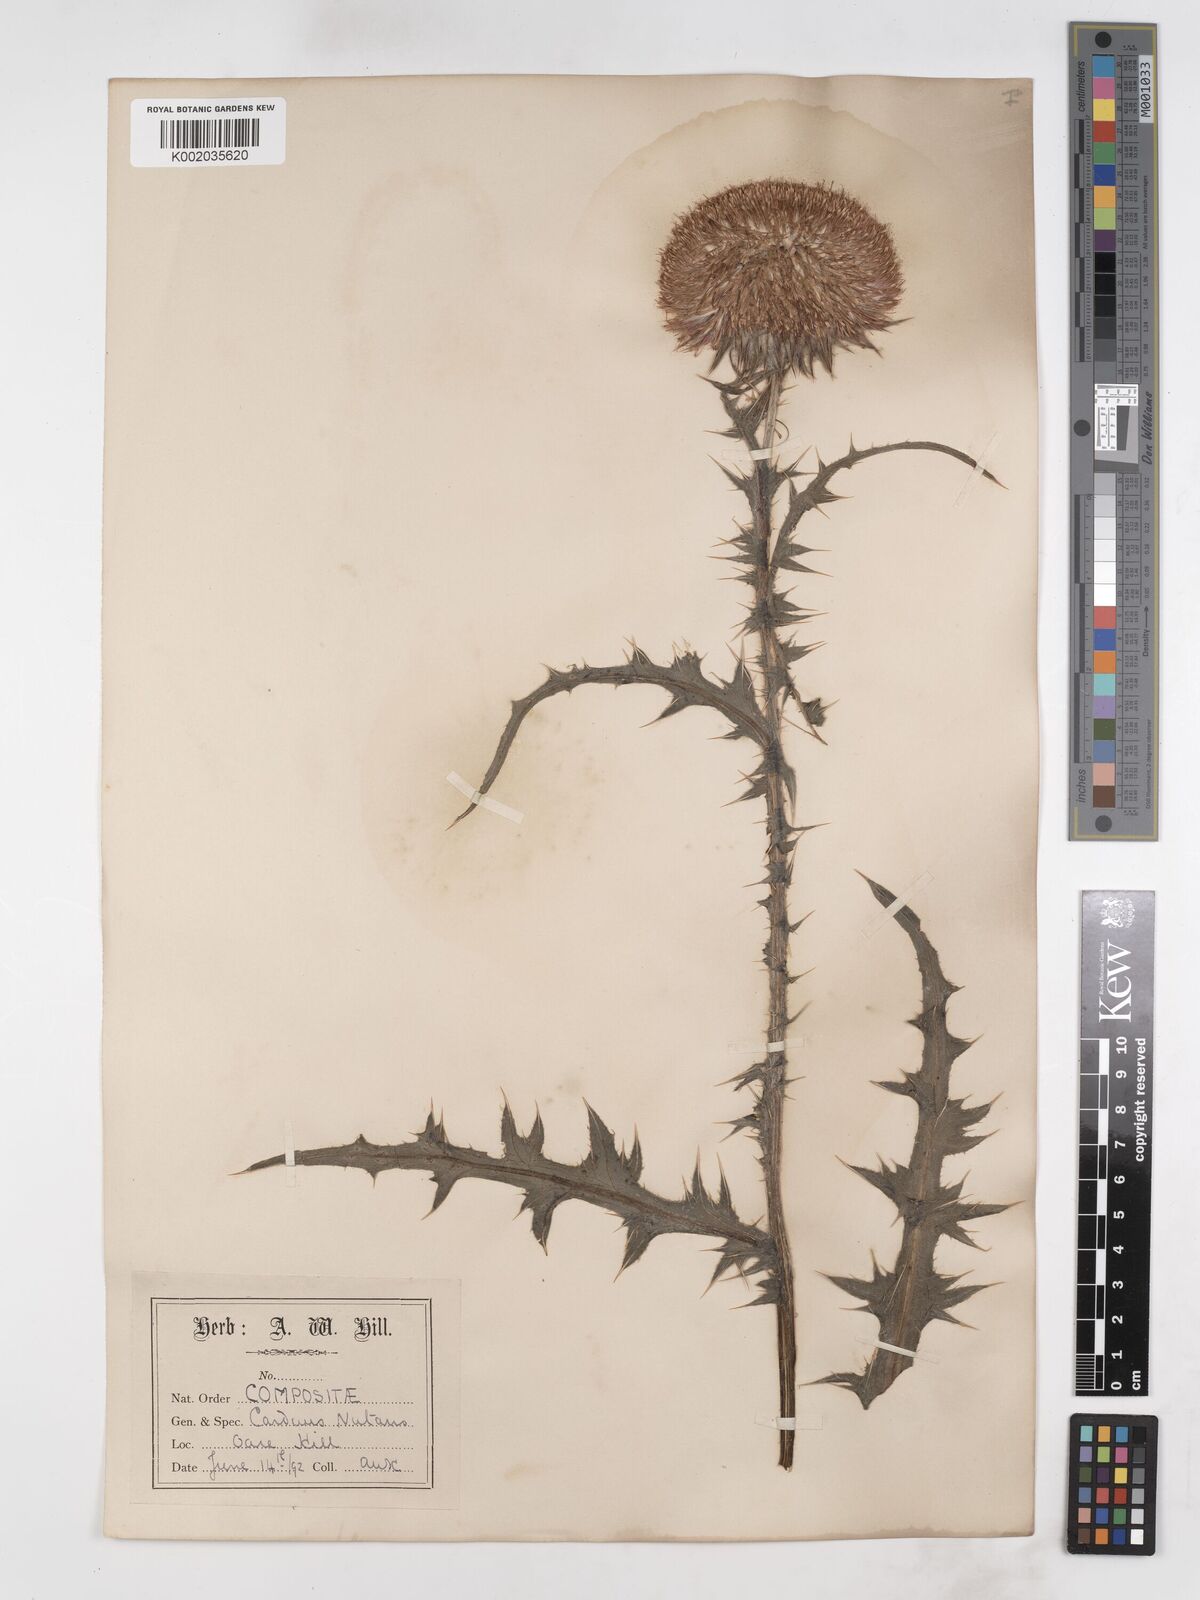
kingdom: Plantae
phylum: Tracheophyta
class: Magnoliopsida
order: Asterales
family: Asteraceae
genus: Carduus
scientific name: Carduus nutans
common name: Musk thistle
